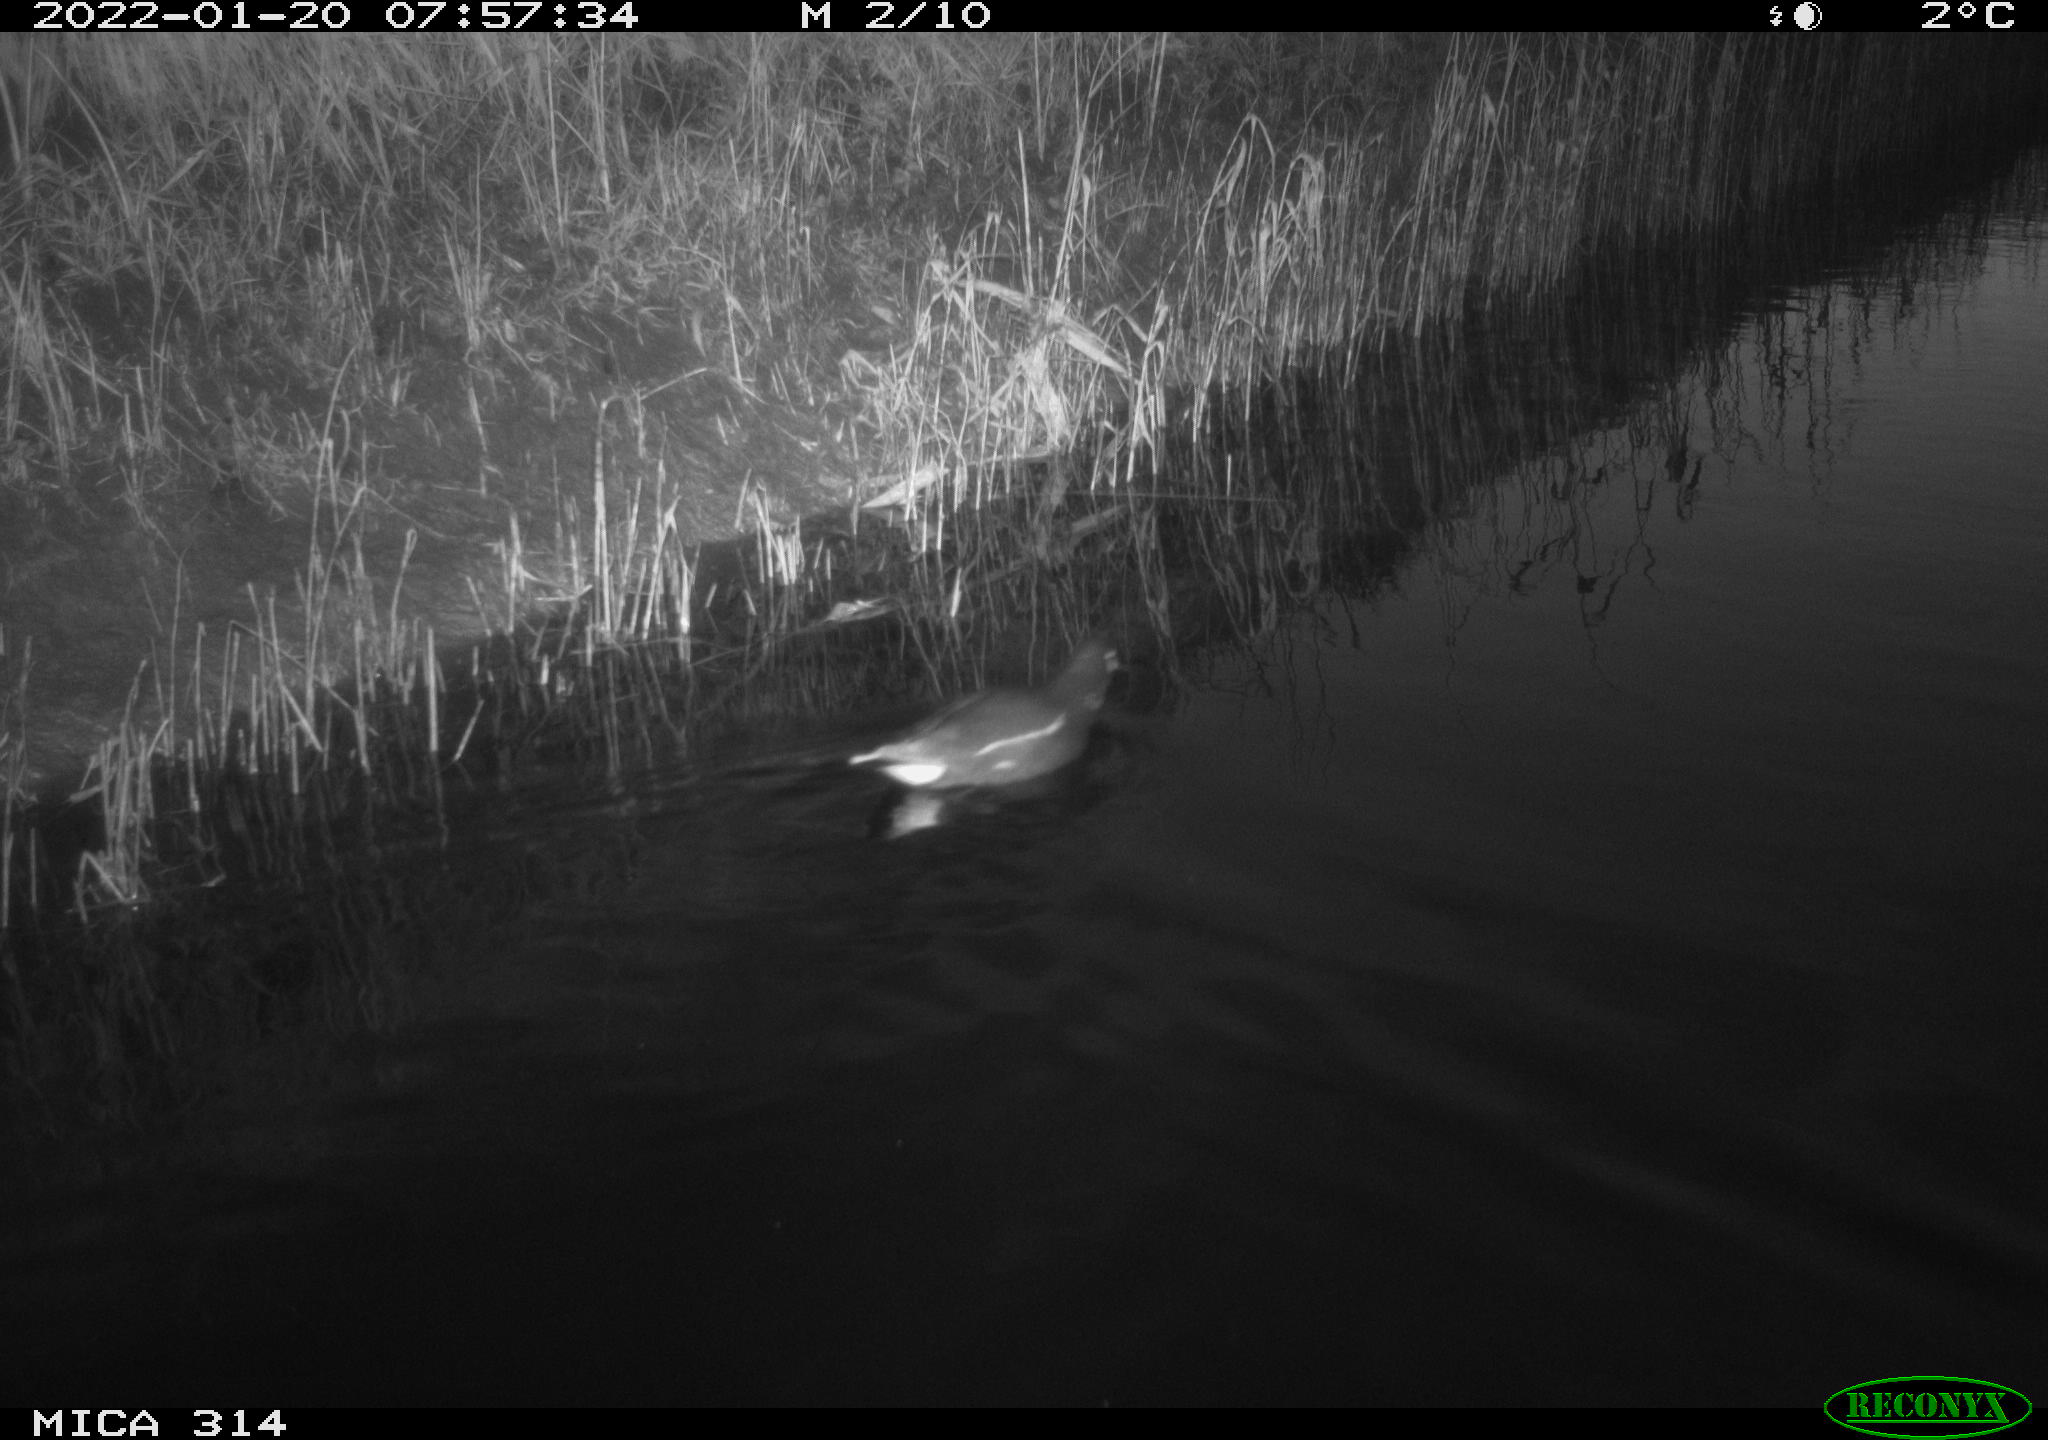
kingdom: Animalia
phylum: Chordata
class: Aves
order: Gruiformes
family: Rallidae
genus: Gallinula
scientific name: Gallinula chloropus
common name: Common moorhen
